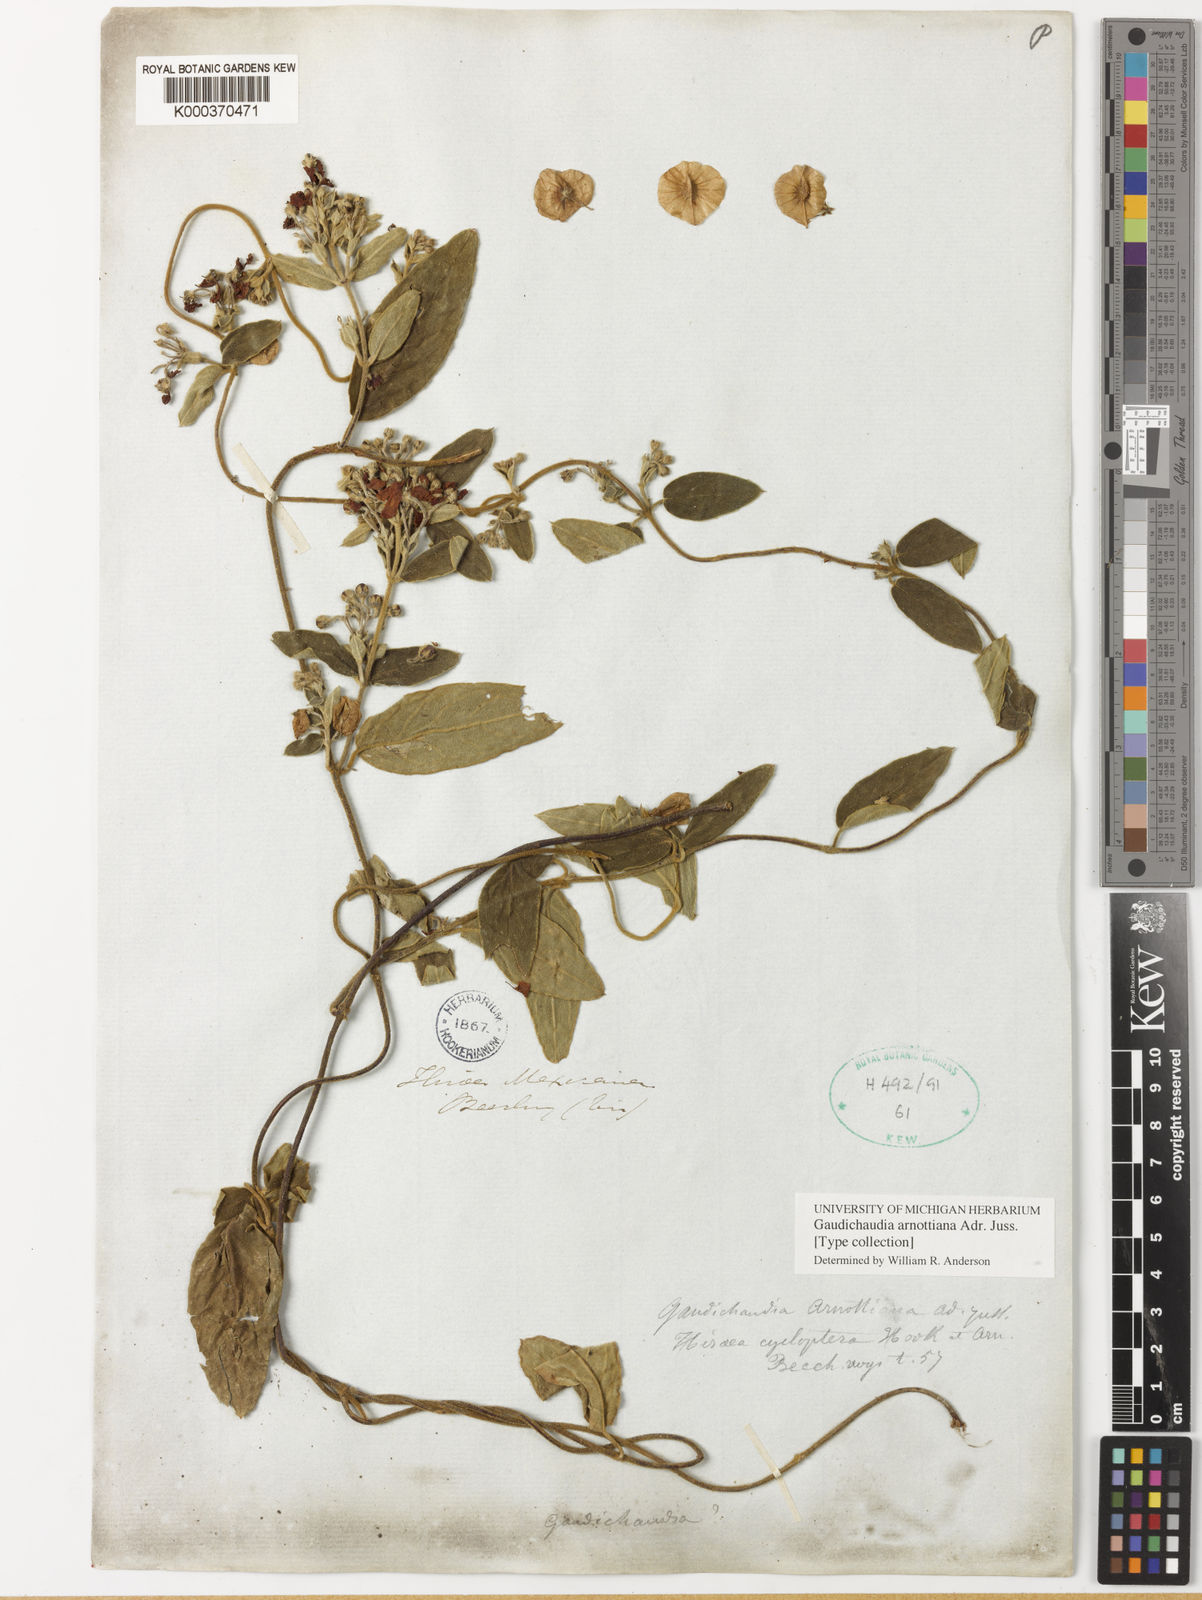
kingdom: Plantae
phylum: Tracheophyta
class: Magnoliopsida
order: Malpighiales
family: Malpighiaceae
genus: Gaudichaudia
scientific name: Gaudichaudia arnottiana
